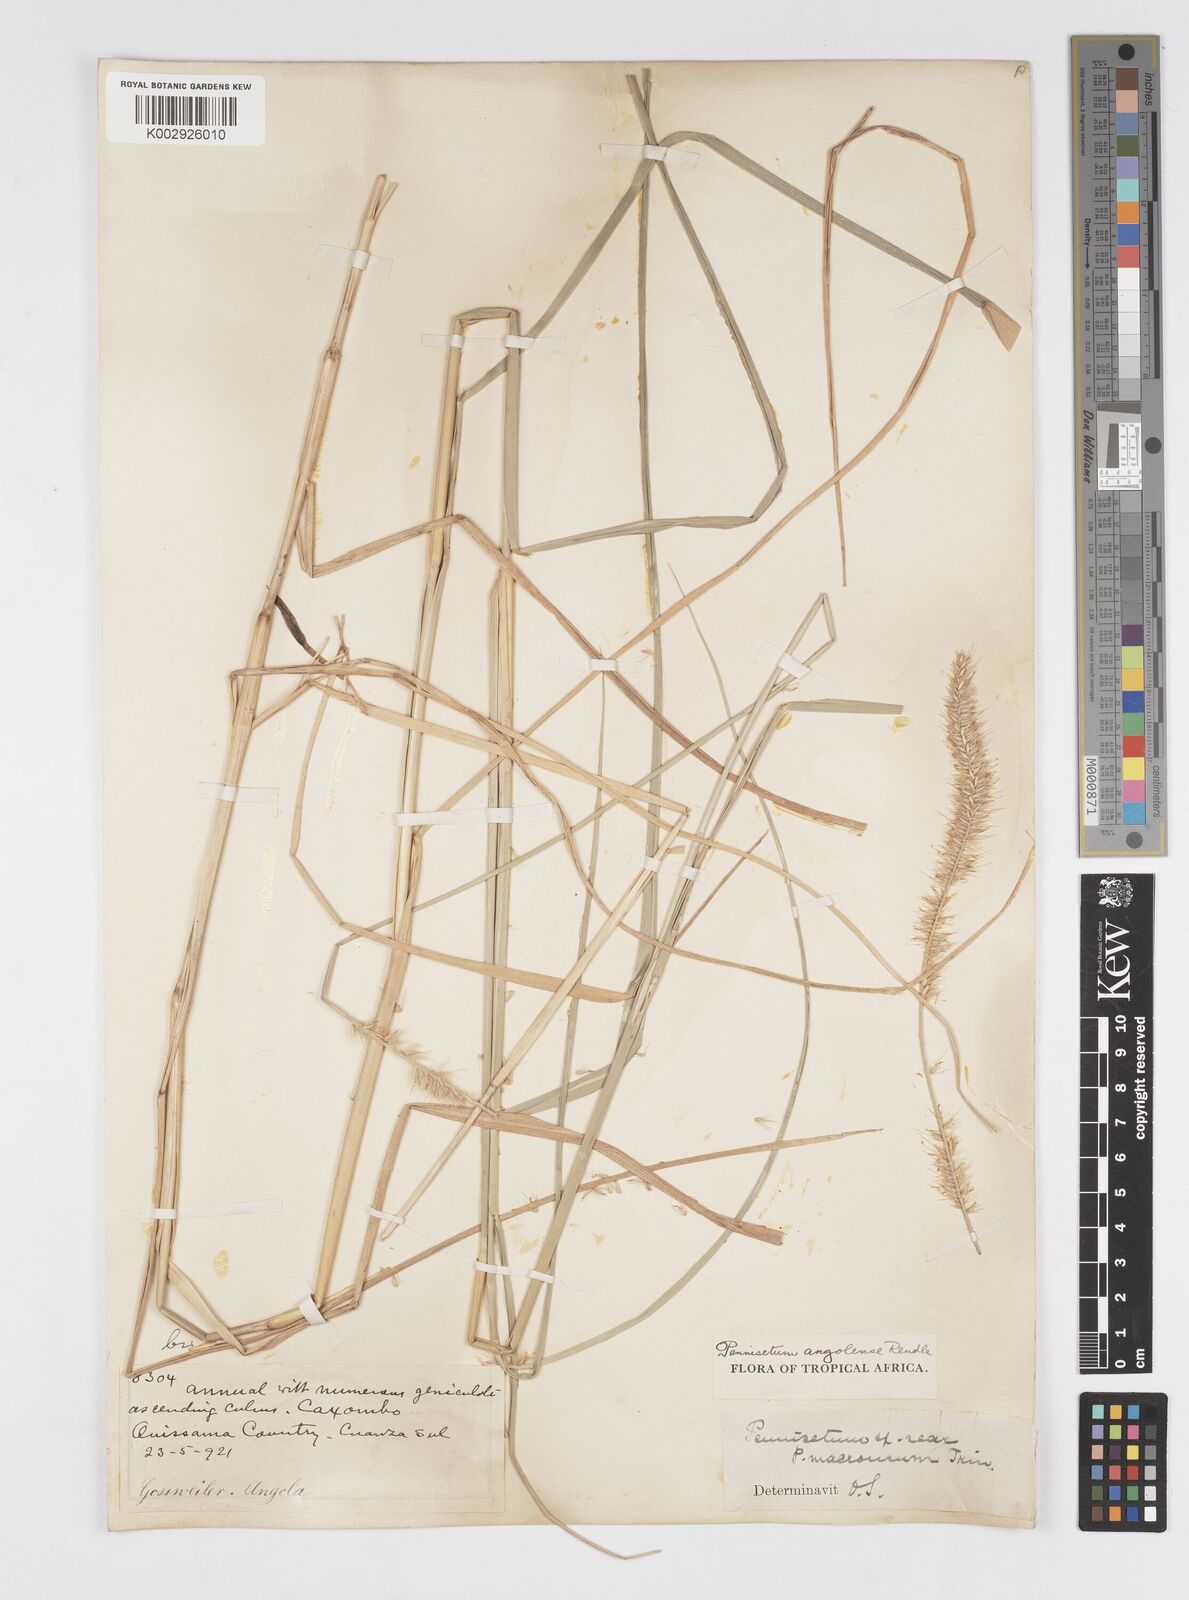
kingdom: Plantae
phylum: Tracheophyta
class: Liliopsida
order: Poales
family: Poaceae
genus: Cenchrus
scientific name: Cenchrus caudatus
